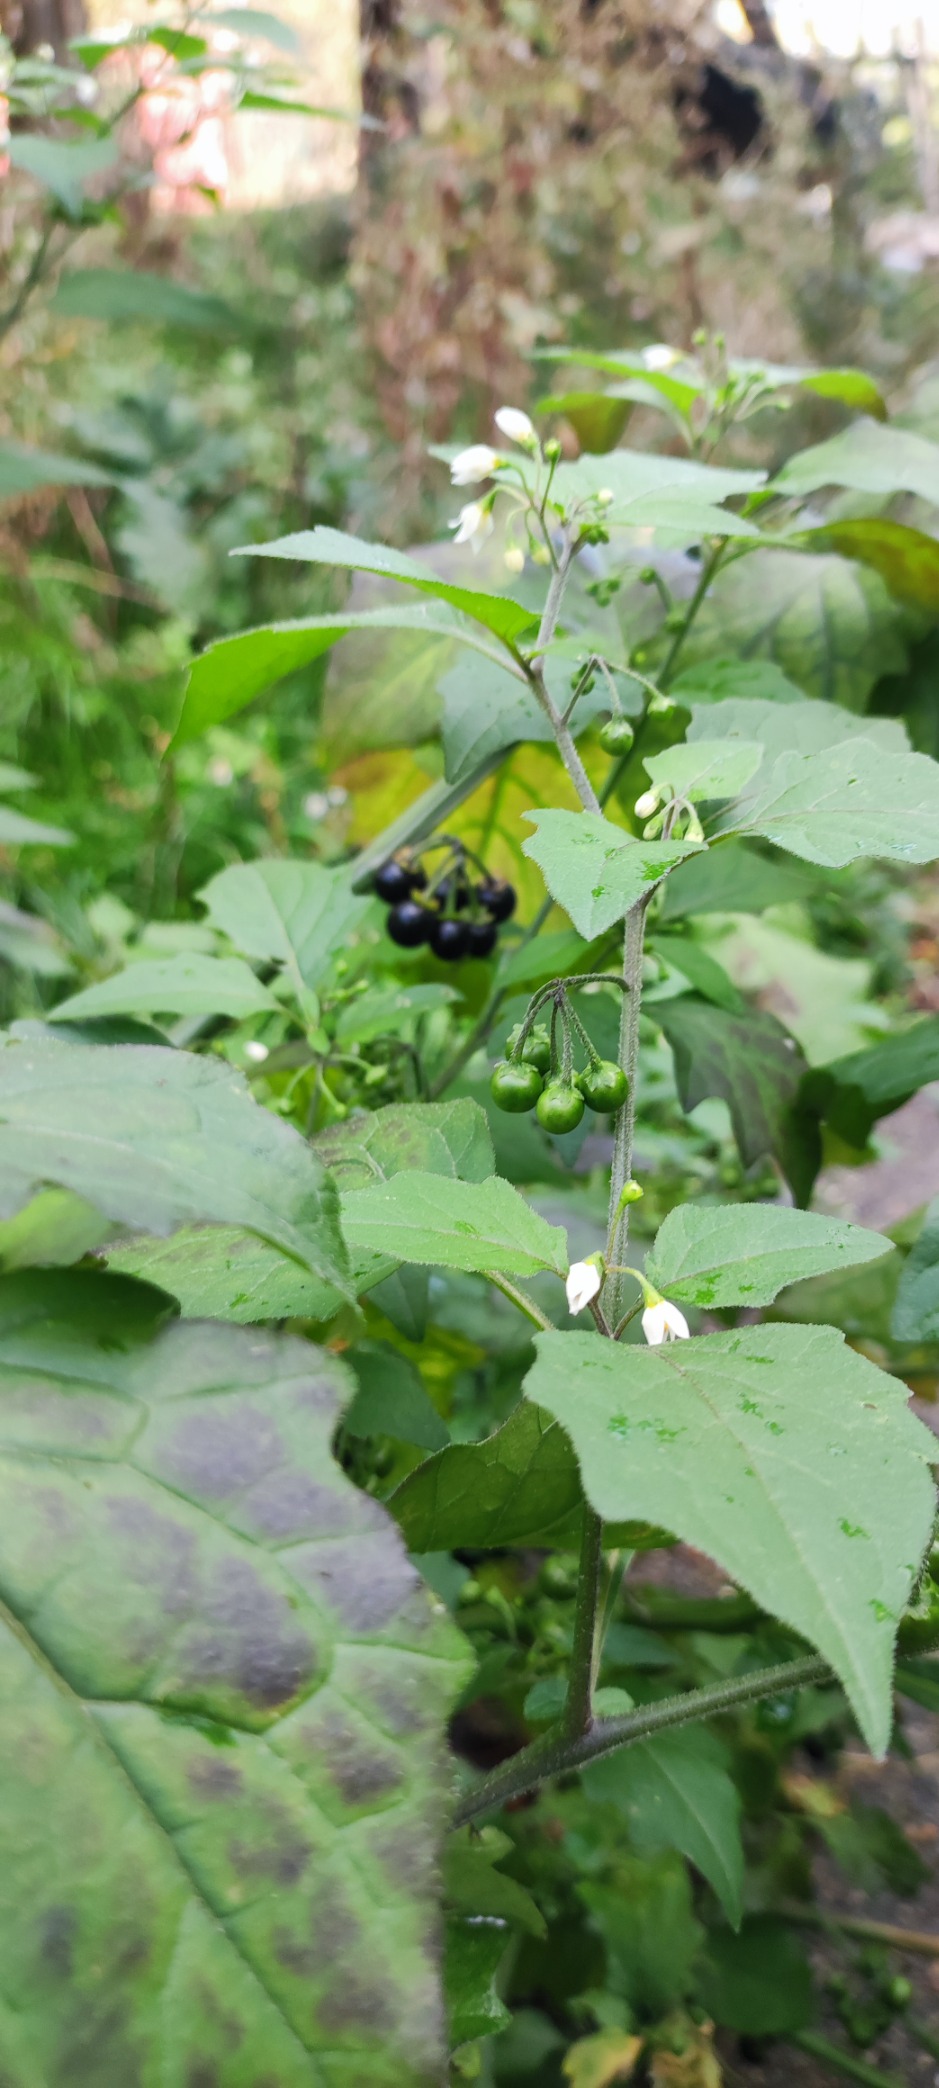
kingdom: Plantae
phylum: Tracheophyta
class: Magnoliopsida
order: Solanales
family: Solanaceae
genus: Solanum
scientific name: Solanum nigrum
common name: Sort natskygge
